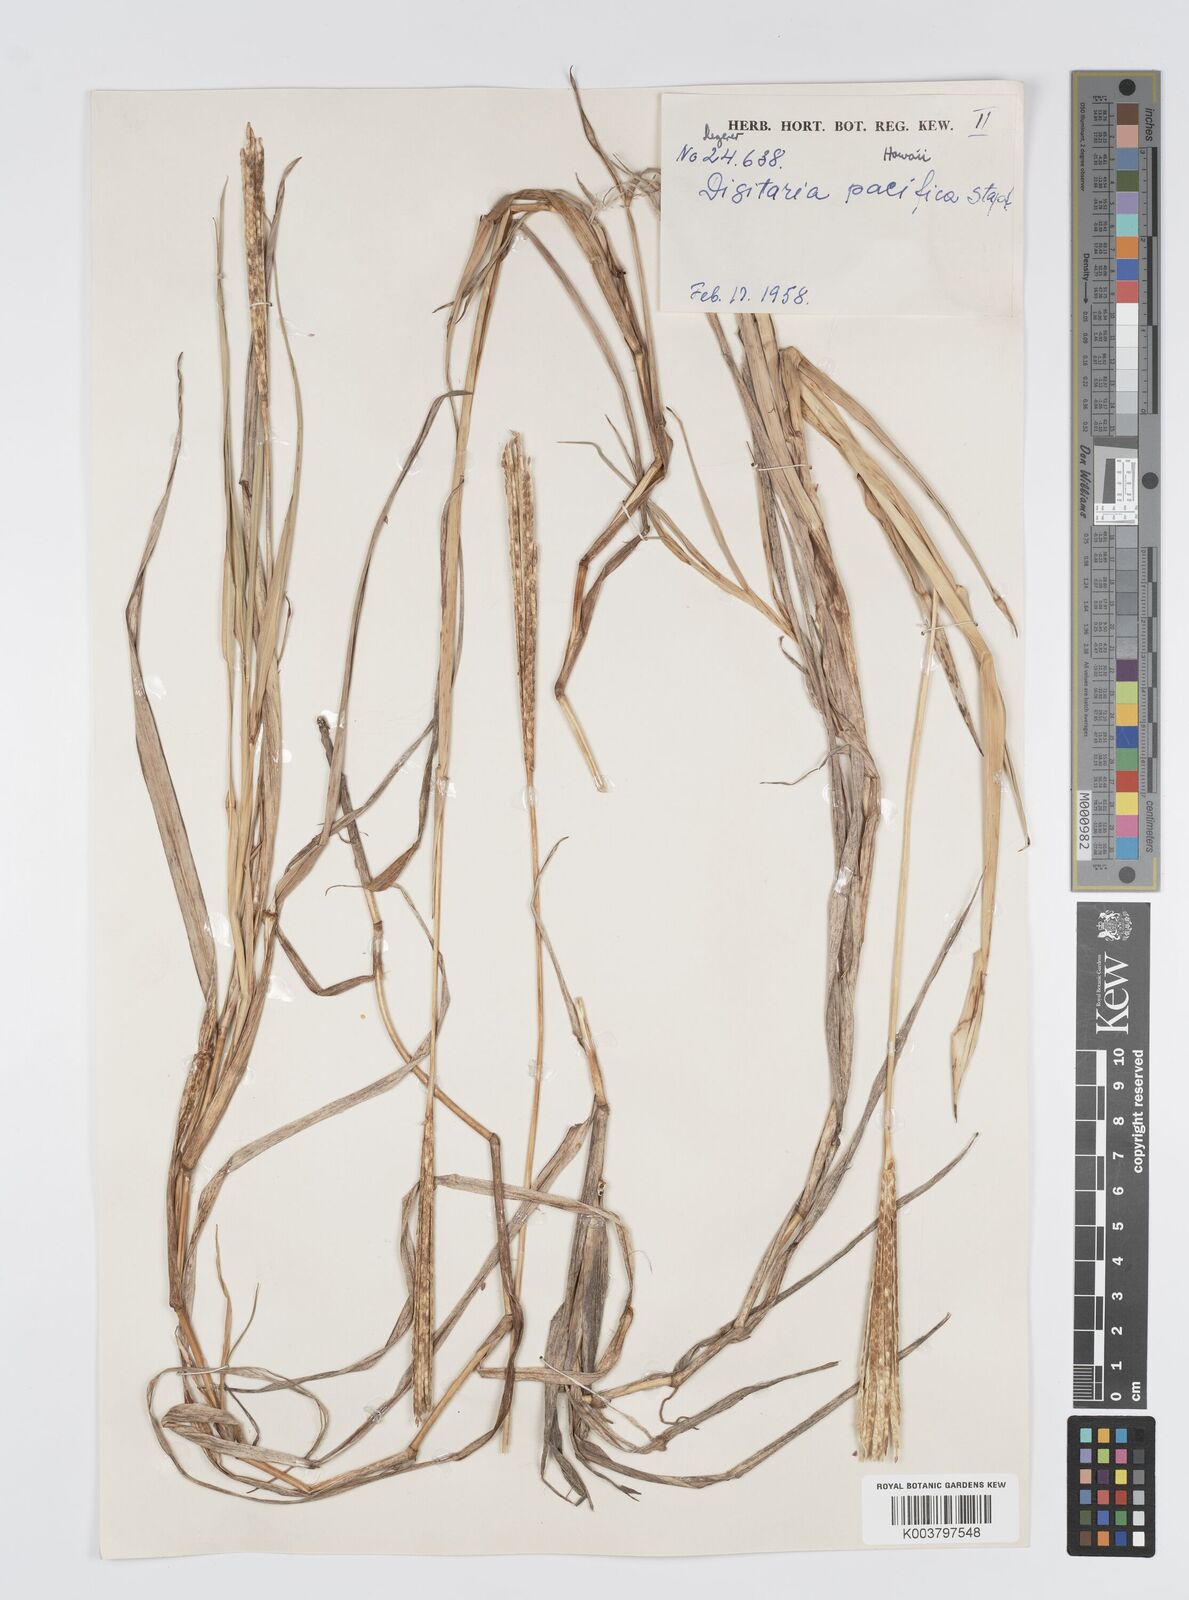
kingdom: Plantae
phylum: Tracheophyta
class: Liliopsida
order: Poales
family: Poaceae
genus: Digitaria
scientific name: Digitaria stenotaphrodes
